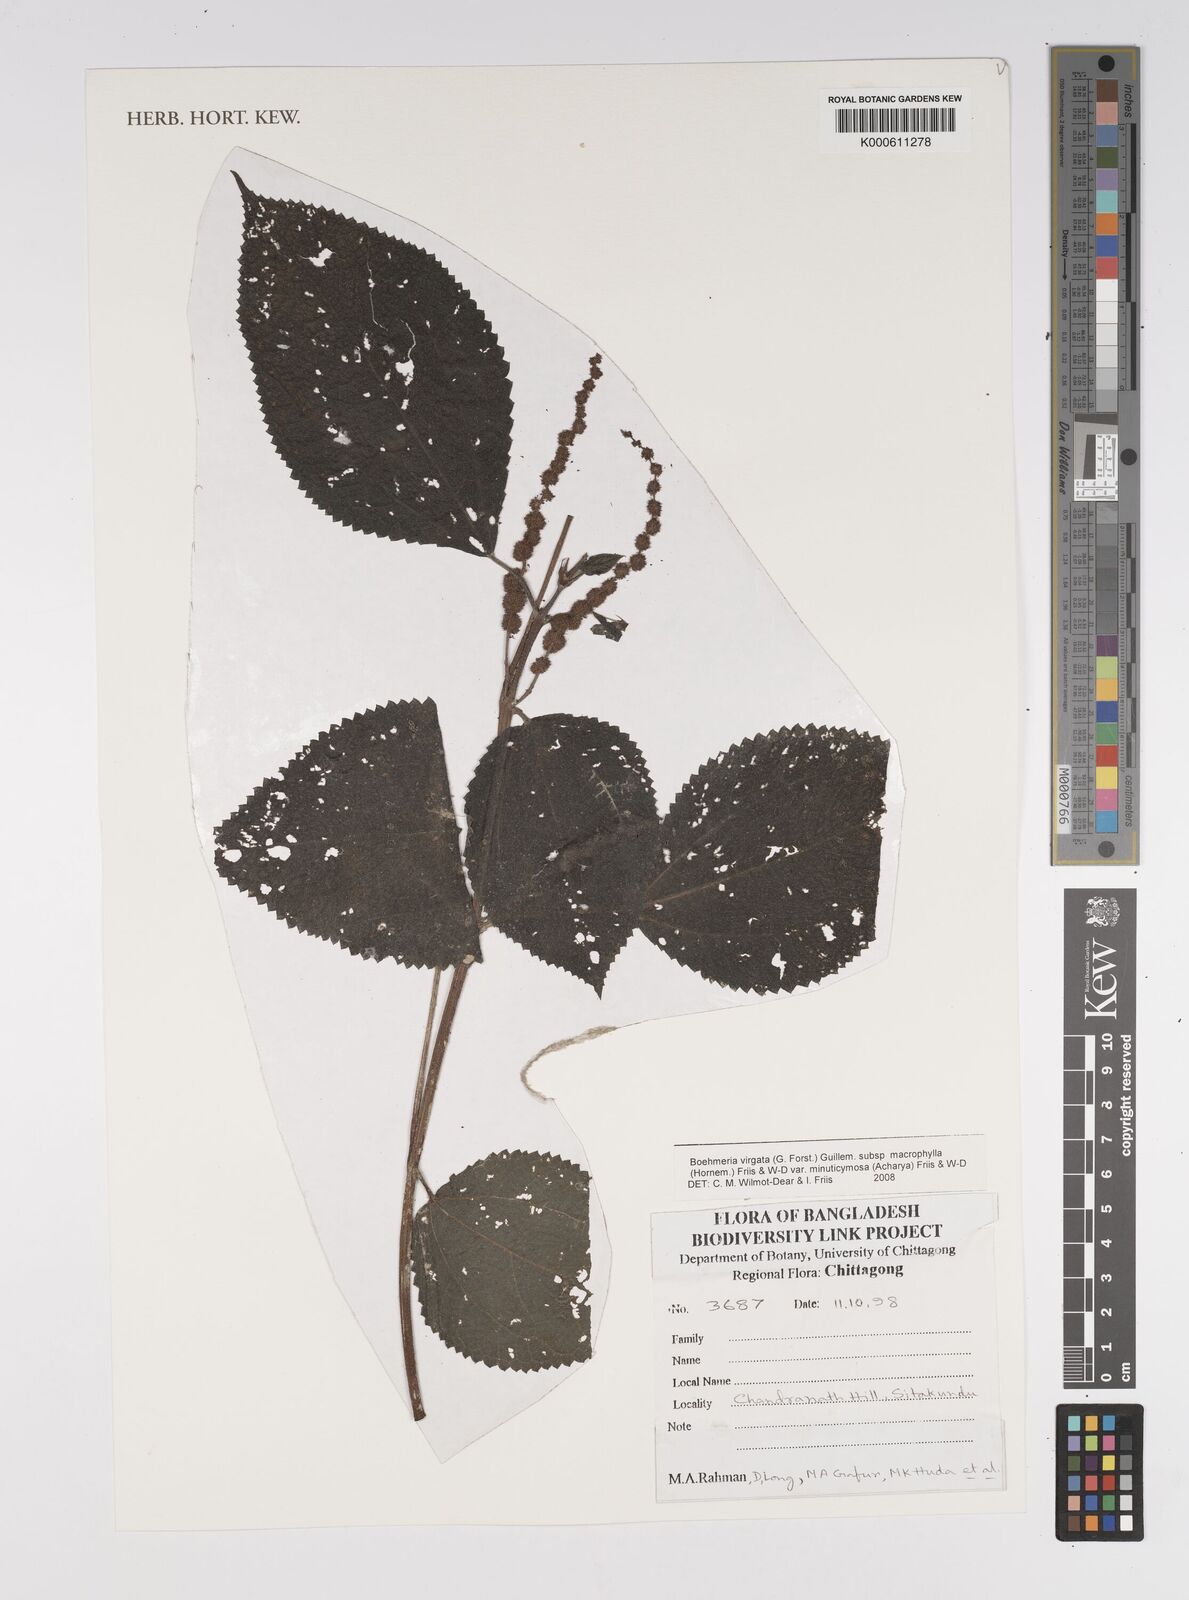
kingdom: Plantae
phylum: Tracheophyta
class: Magnoliopsida
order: Rosales
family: Urticaceae
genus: Boehmeria
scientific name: Boehmeria virgata
